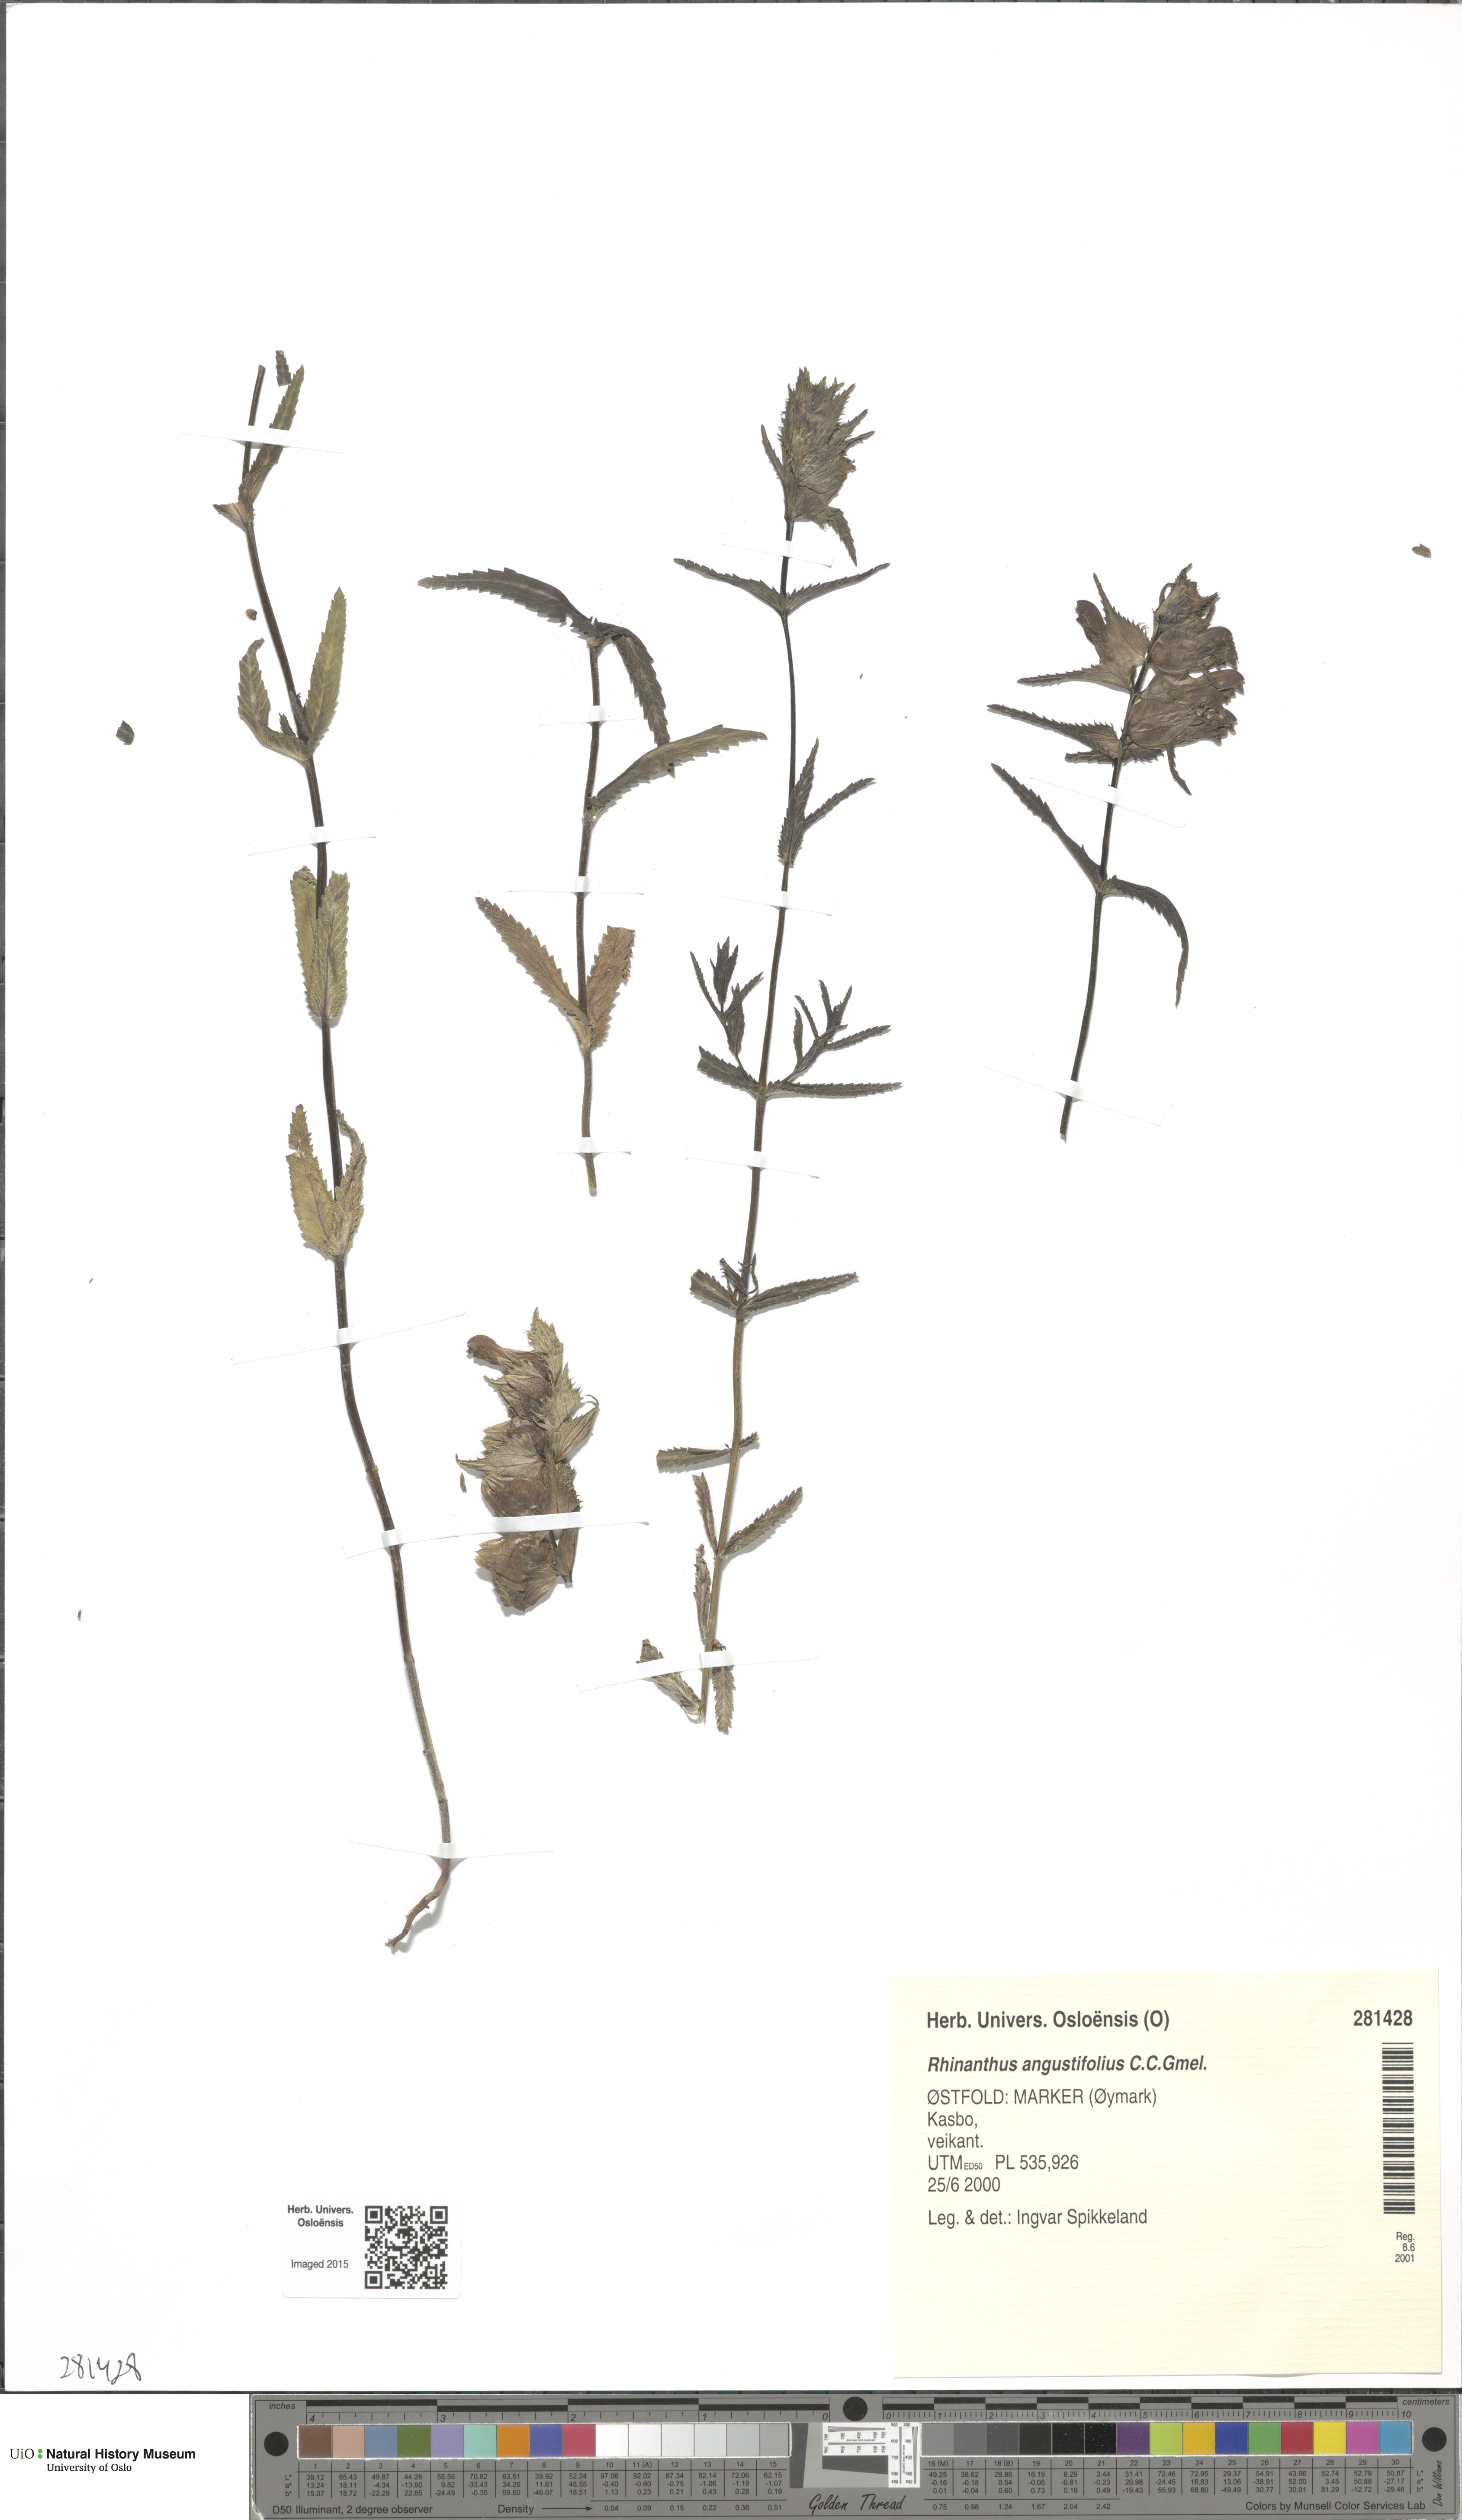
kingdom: Plantae
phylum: Tracheophyta
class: Magnoliopsida
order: Lamiales
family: Orobanchaceae
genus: Rhinanthus
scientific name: Rhinanthus serotinus
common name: Late-flowering yellow rattle
